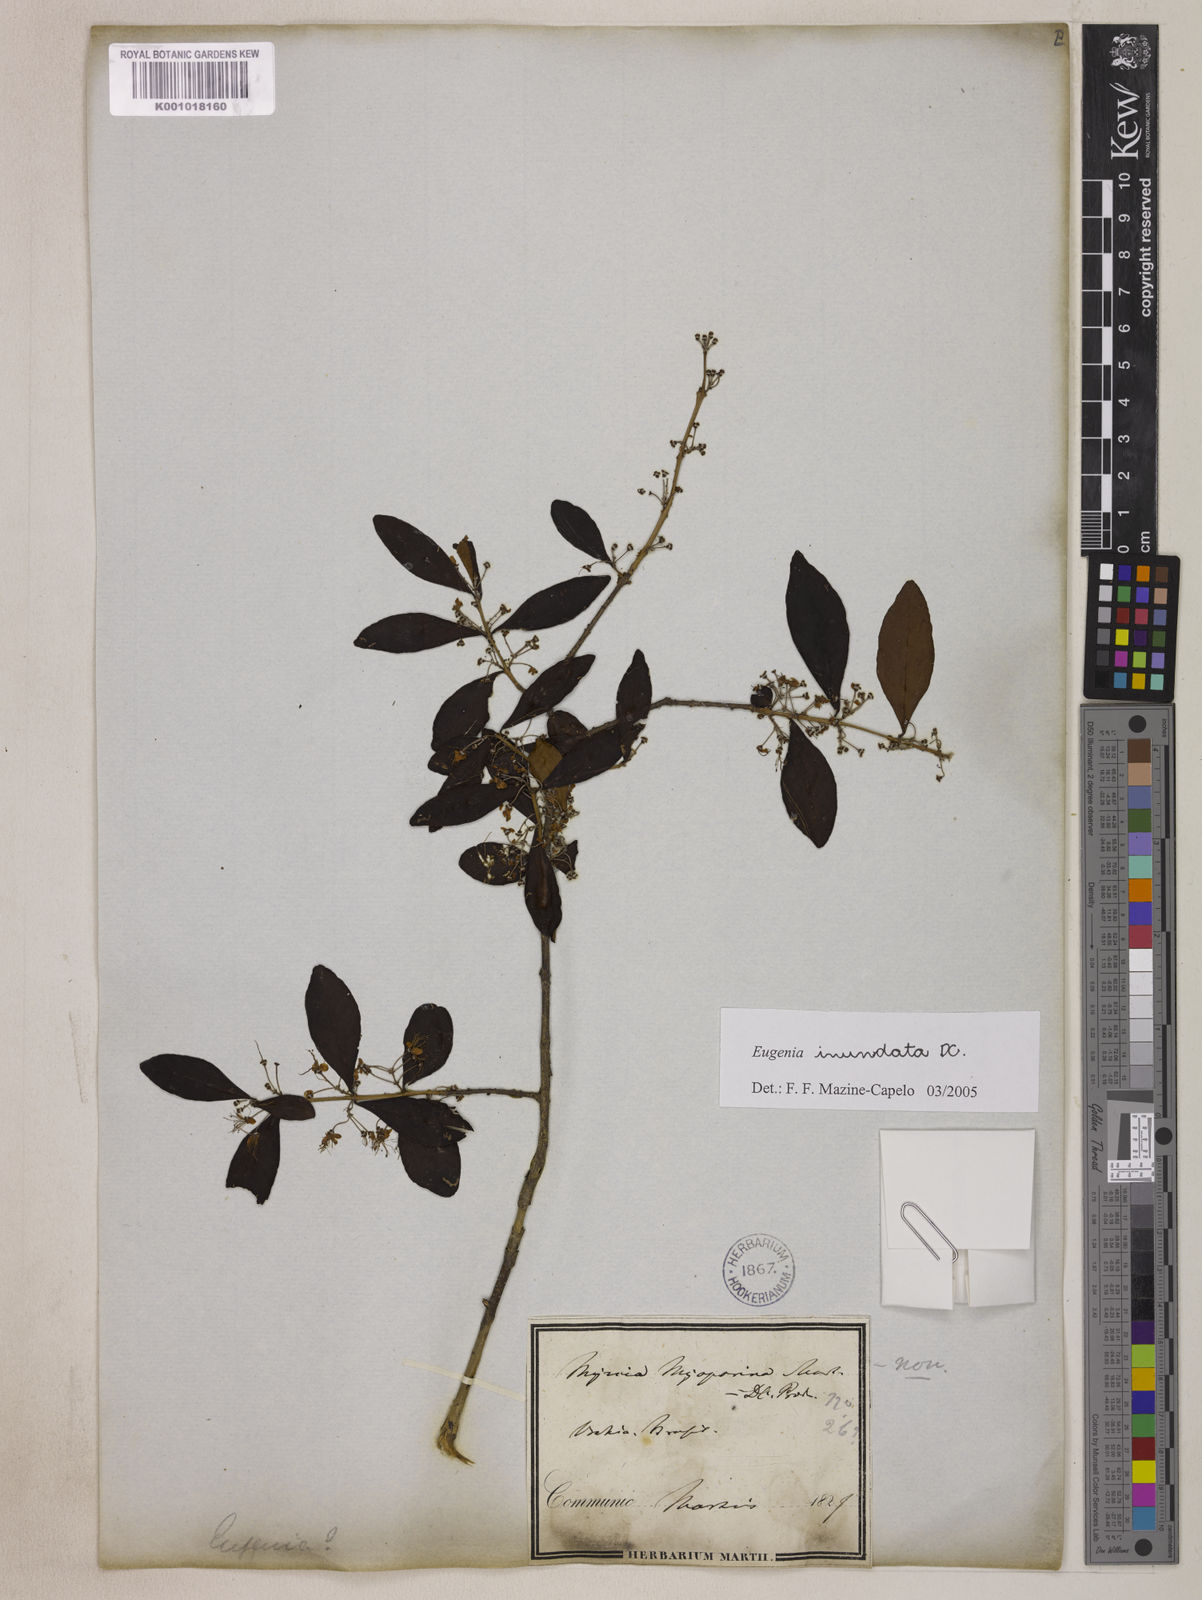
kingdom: Plantae
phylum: Tracheophyta
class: Magnoliopsida
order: Myrtales
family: Myrtaceae
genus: Eugenia
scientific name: Eugenia inundata
